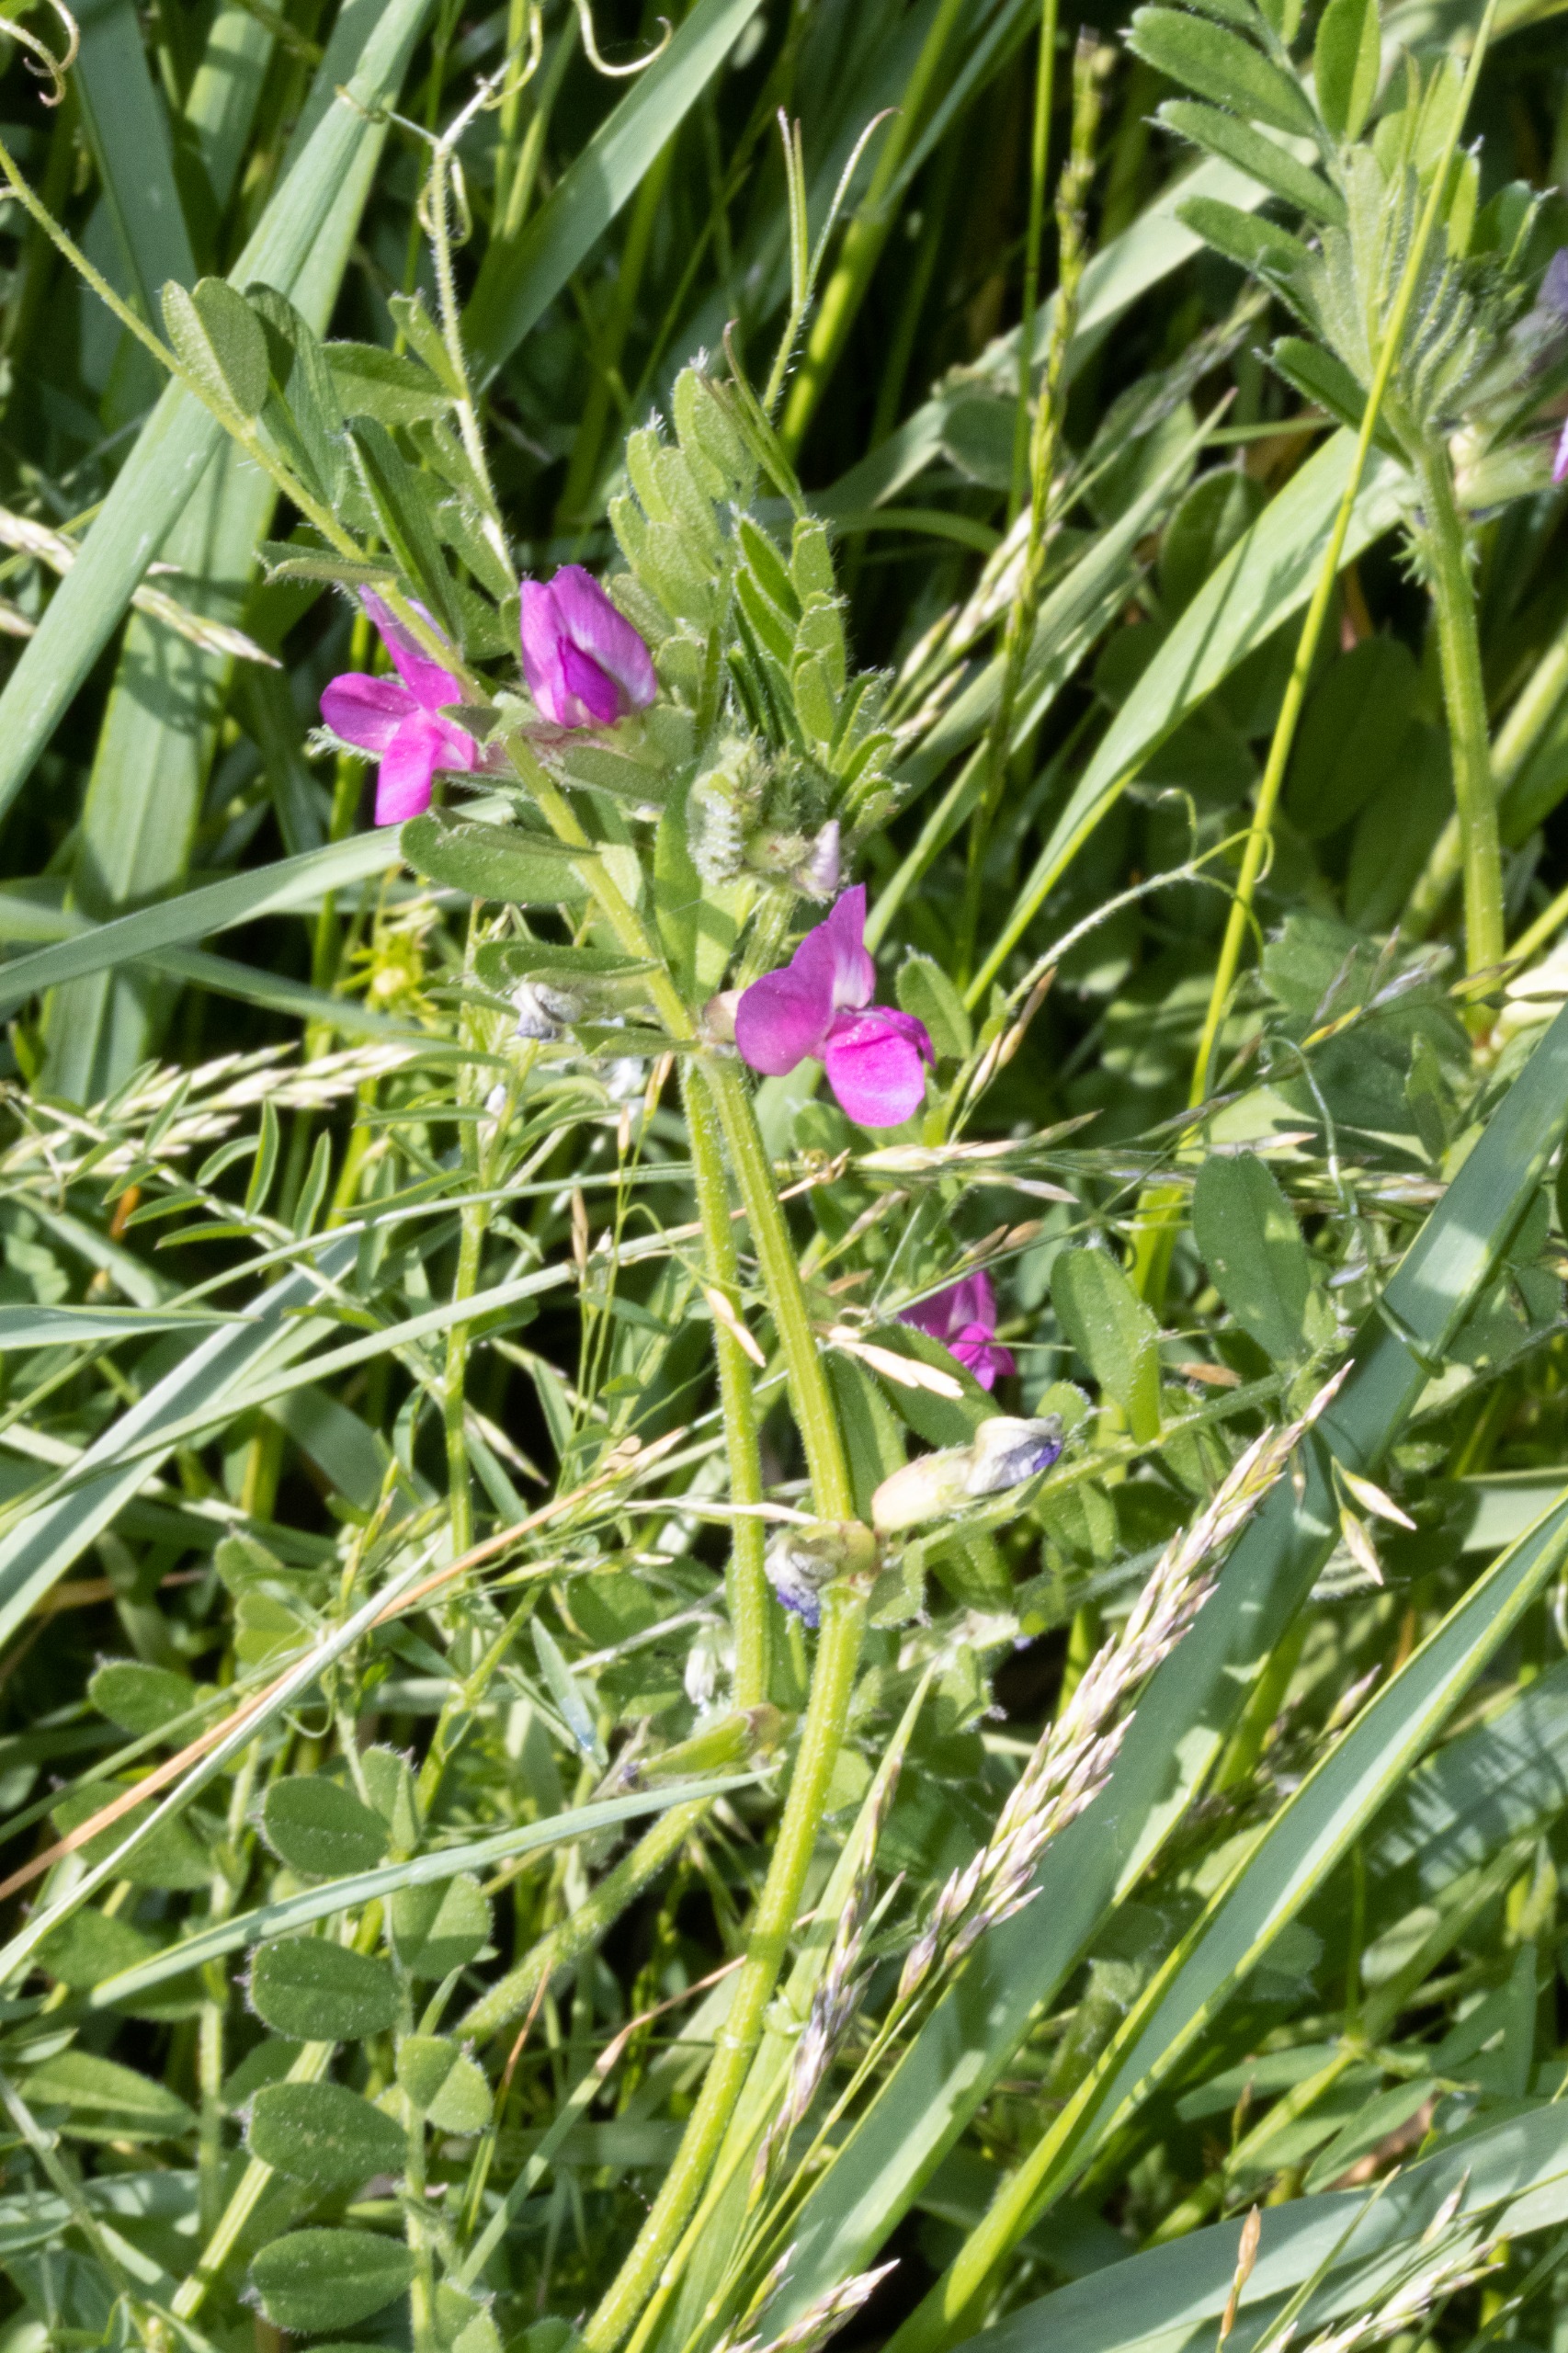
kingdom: Plantae
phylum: Tracheophyta
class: Magnoliopsida
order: Fabales
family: Fabaceae
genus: Vicia
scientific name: Vicia sativa
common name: Foder-vikke
